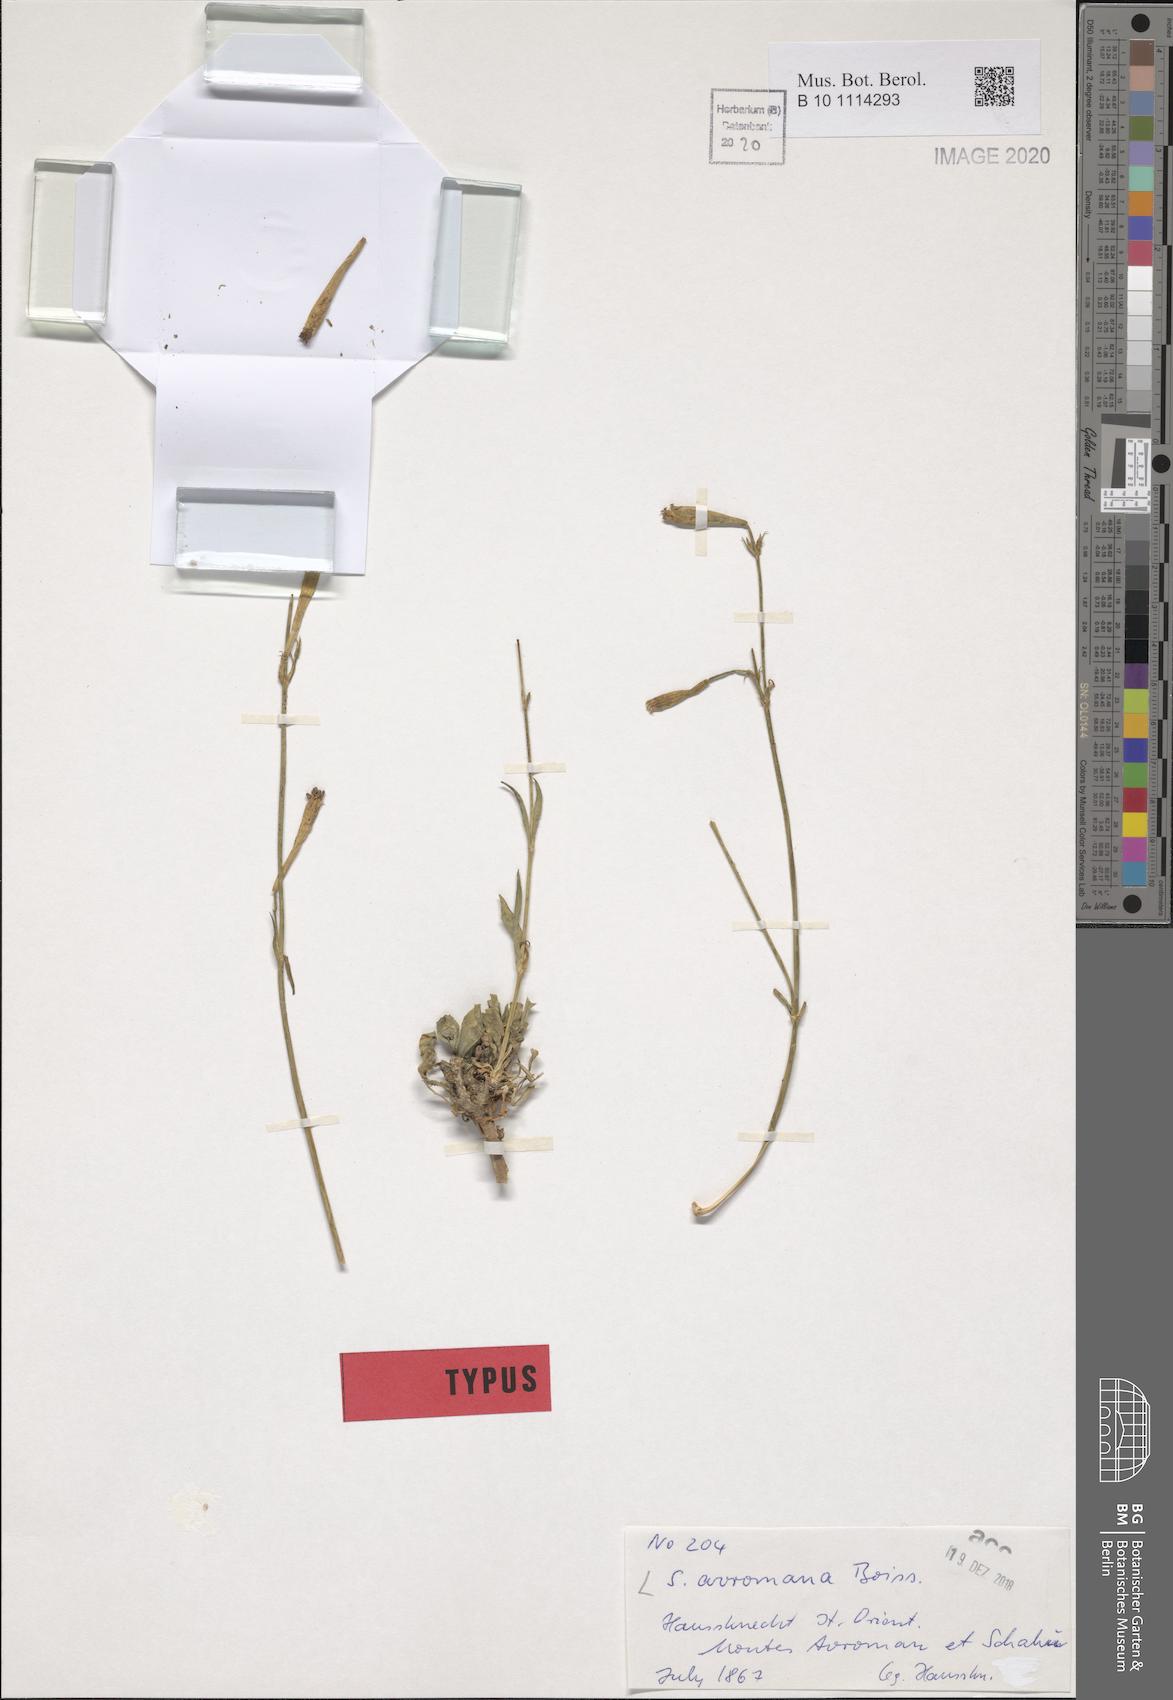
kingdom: Plantae
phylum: Tracheophyta
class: Magnoliopsida
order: Caryophyllales
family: Caryophyllaceae
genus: Silene
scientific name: Silene avromana
